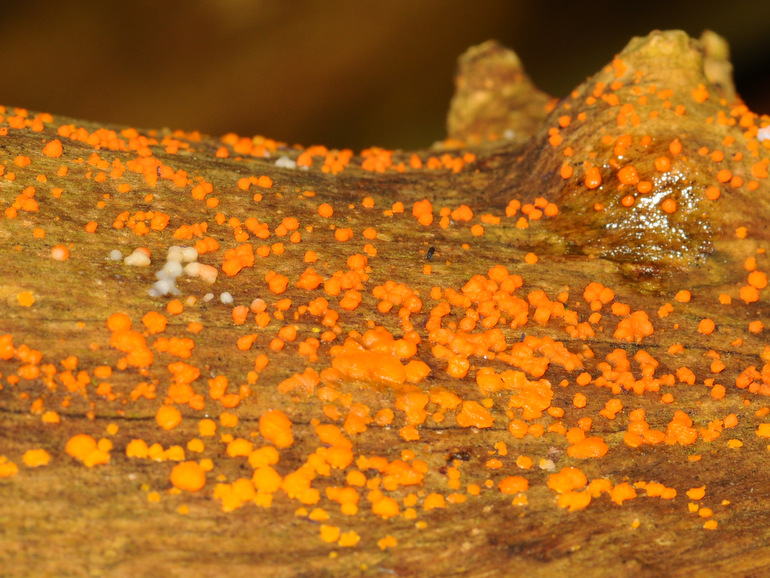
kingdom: Fungi
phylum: Basidiomycota
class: Dacrymycetes
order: Dacrymycetales
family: Dacrymycetaceae
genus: Dacrymyces
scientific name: Dacrymyces stillatus
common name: almindelig tåresvamp
